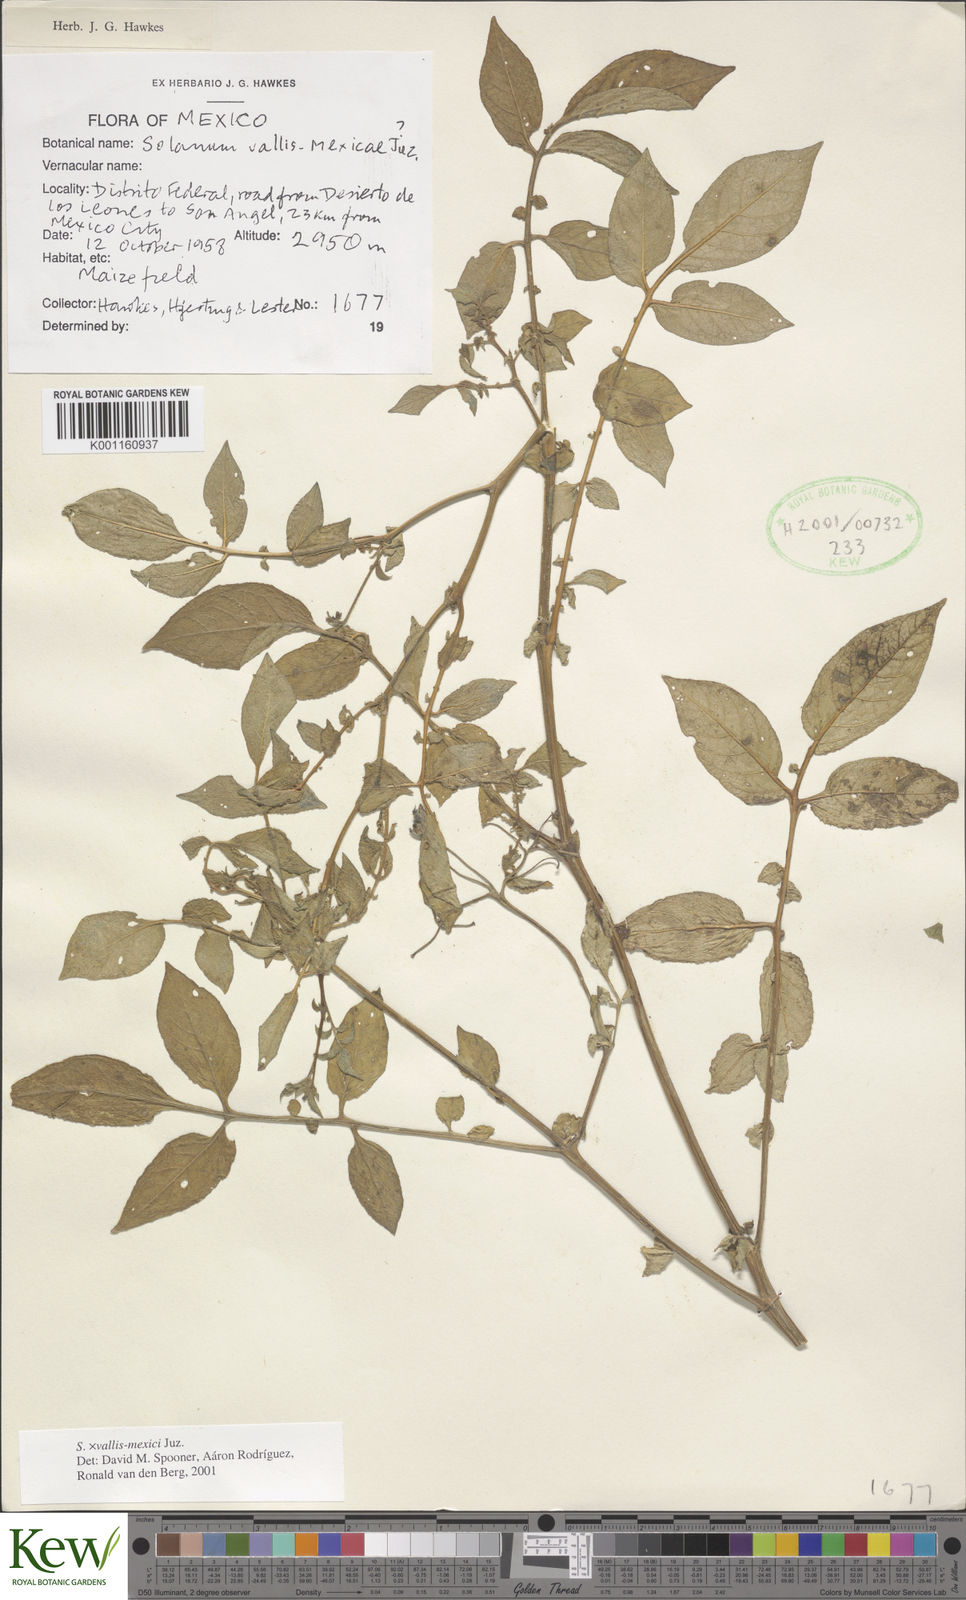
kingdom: Plantae
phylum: Tracheophyta
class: Magnoliopsida
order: Solanales
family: Solanaceae
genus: Solanum
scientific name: Solanum vallis-mexici
